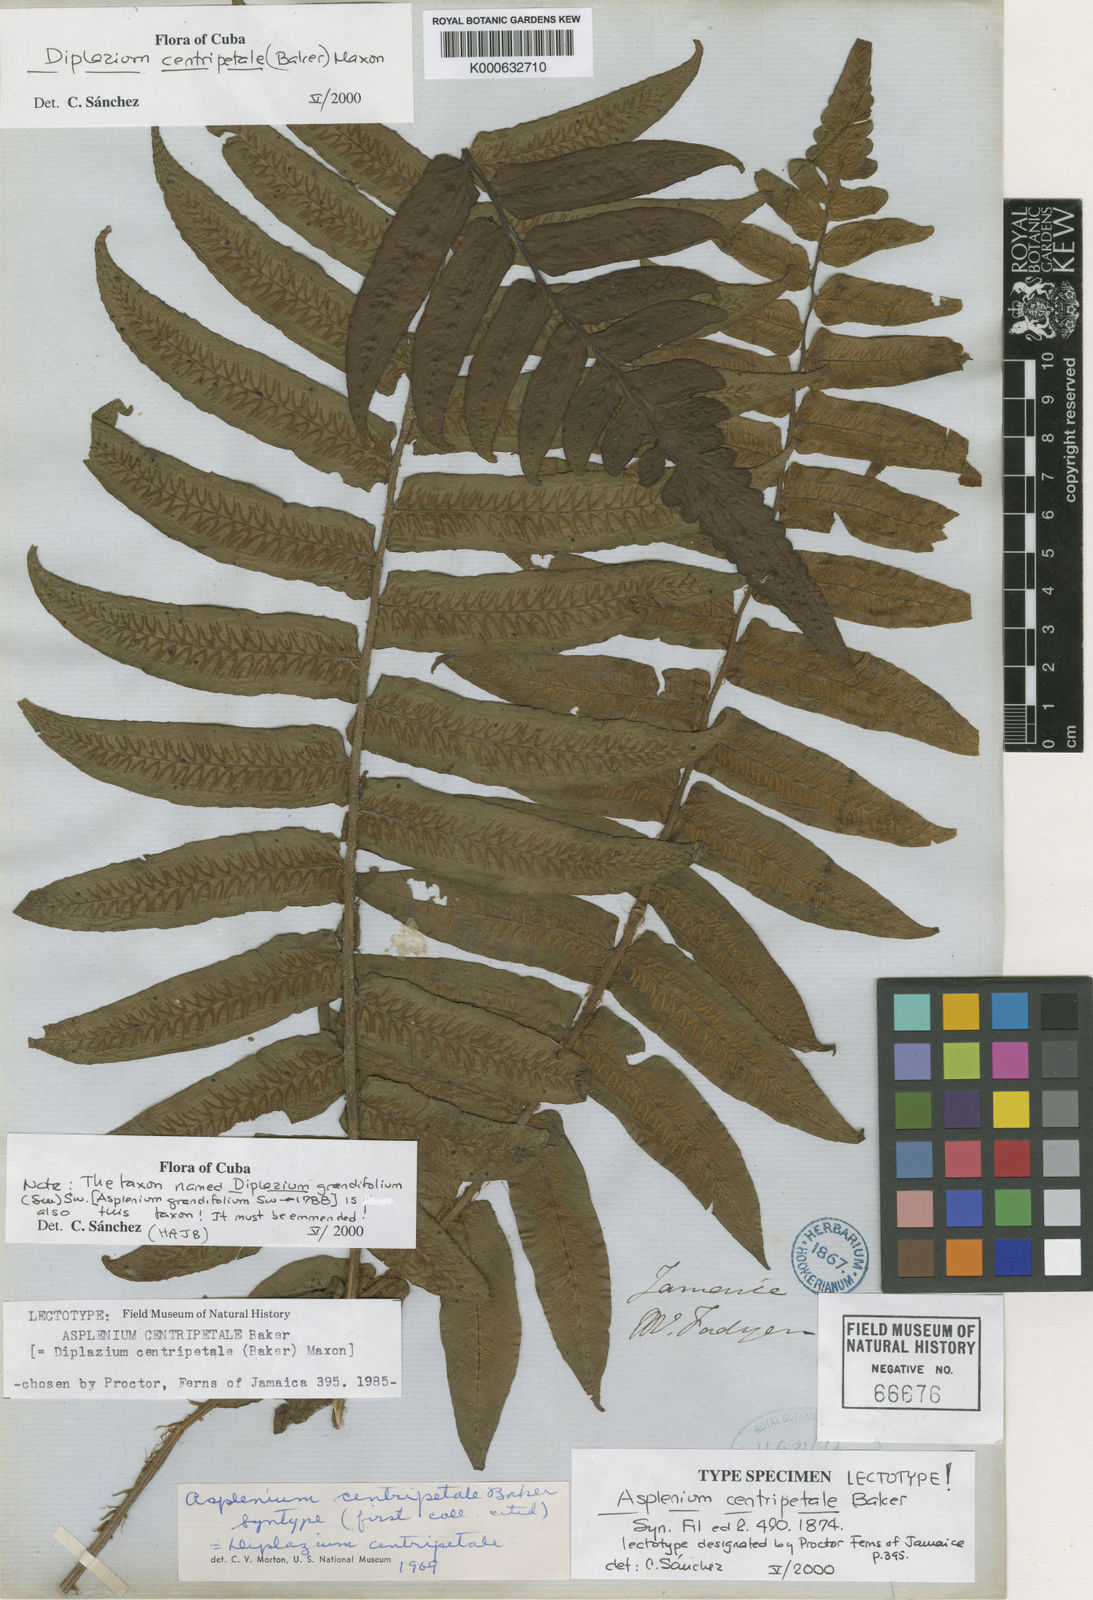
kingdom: Plantae
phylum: Tracheophyta
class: Polypodiopsida
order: Polypodiales
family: Athyriaceae
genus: Diplazium
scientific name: Diplazium centripetale
